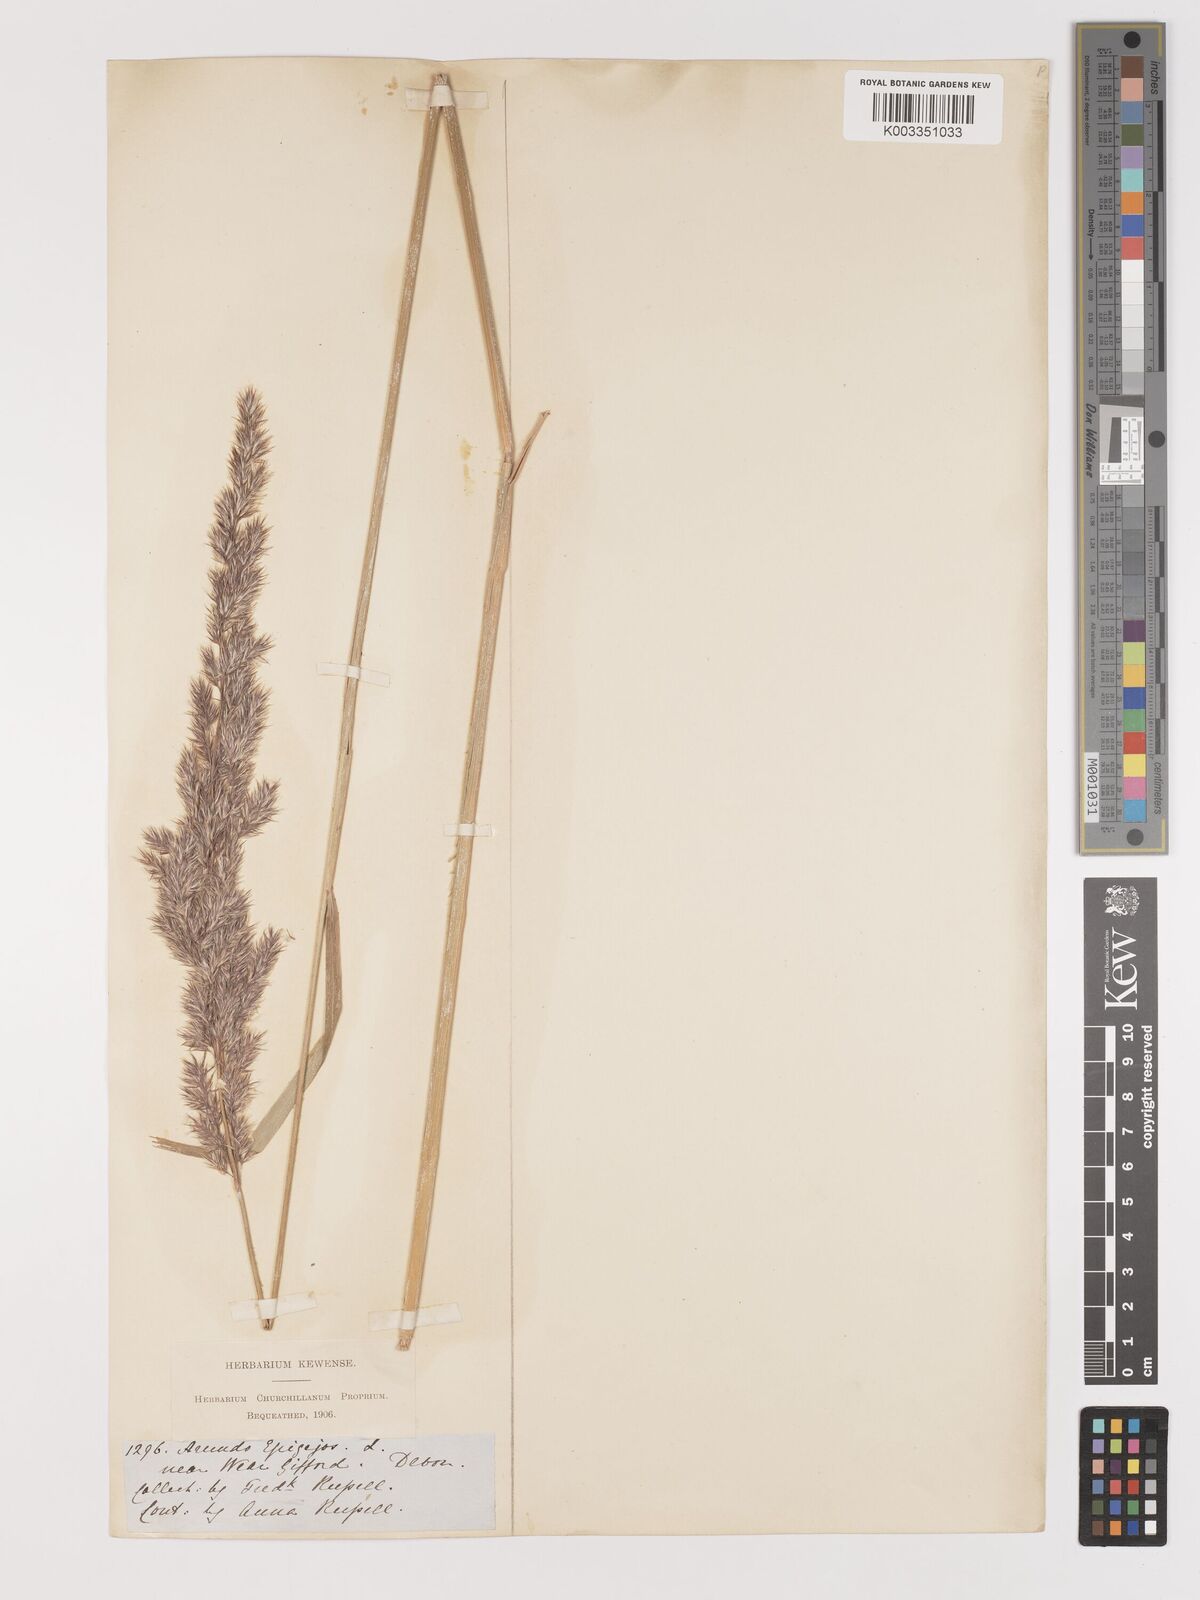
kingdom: Plantae
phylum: Tracheophyta
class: Liliopsida
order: Poales
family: Poaceae
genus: Calamagrostis
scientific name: Calamagrostis epigejos
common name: Wood small-reed
